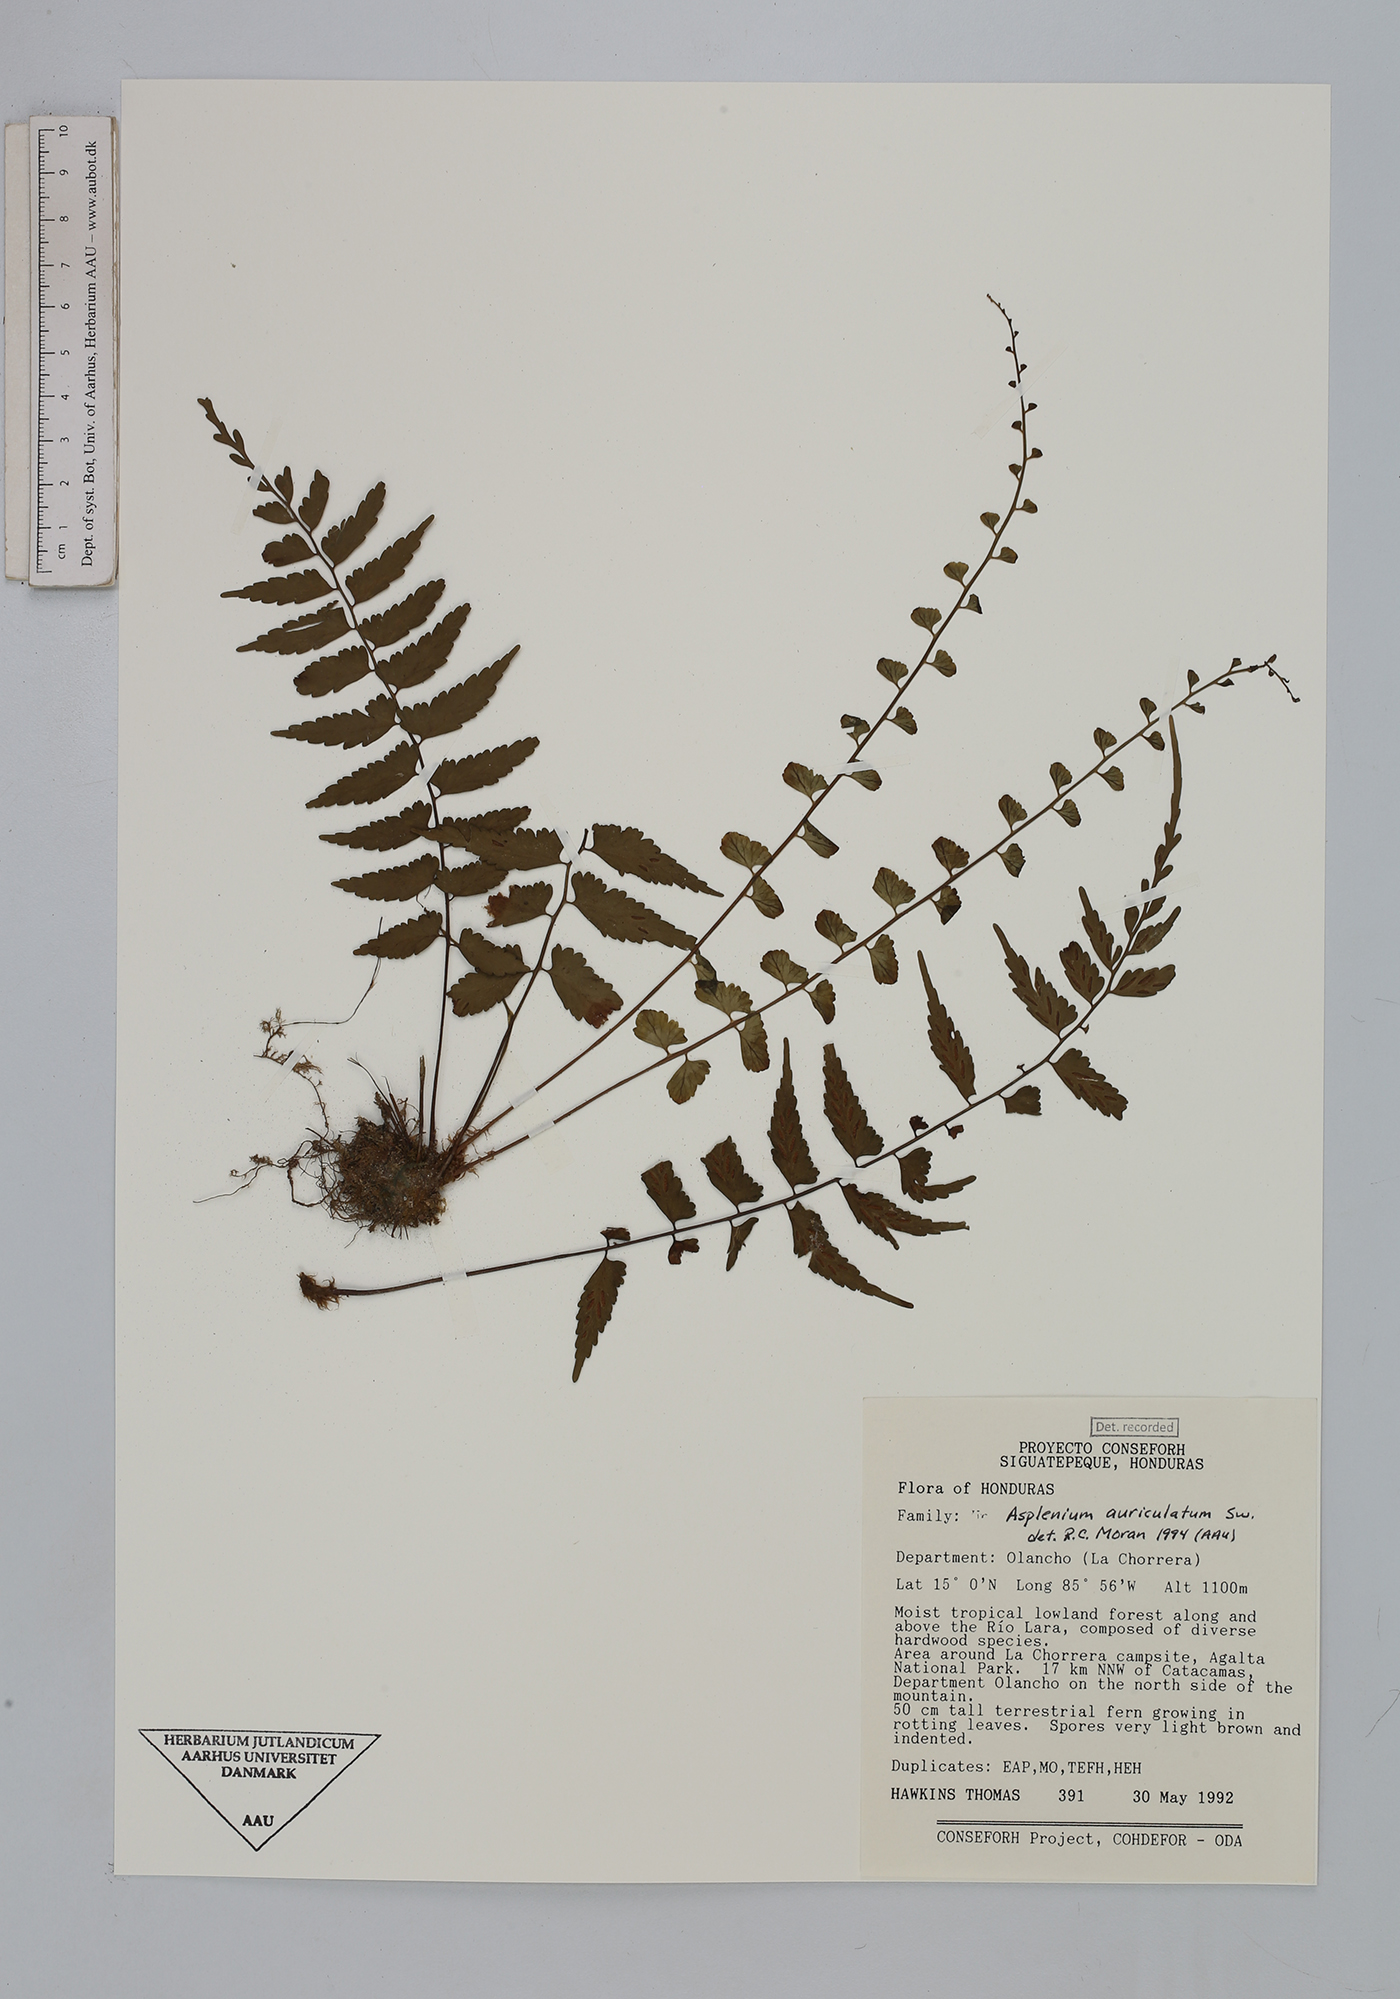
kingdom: Plantae
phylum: Tracheophyta
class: Polypodiopsida
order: Polypodiales
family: Aspleniaceae
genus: Asplenium
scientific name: Asplenium auriculatum
